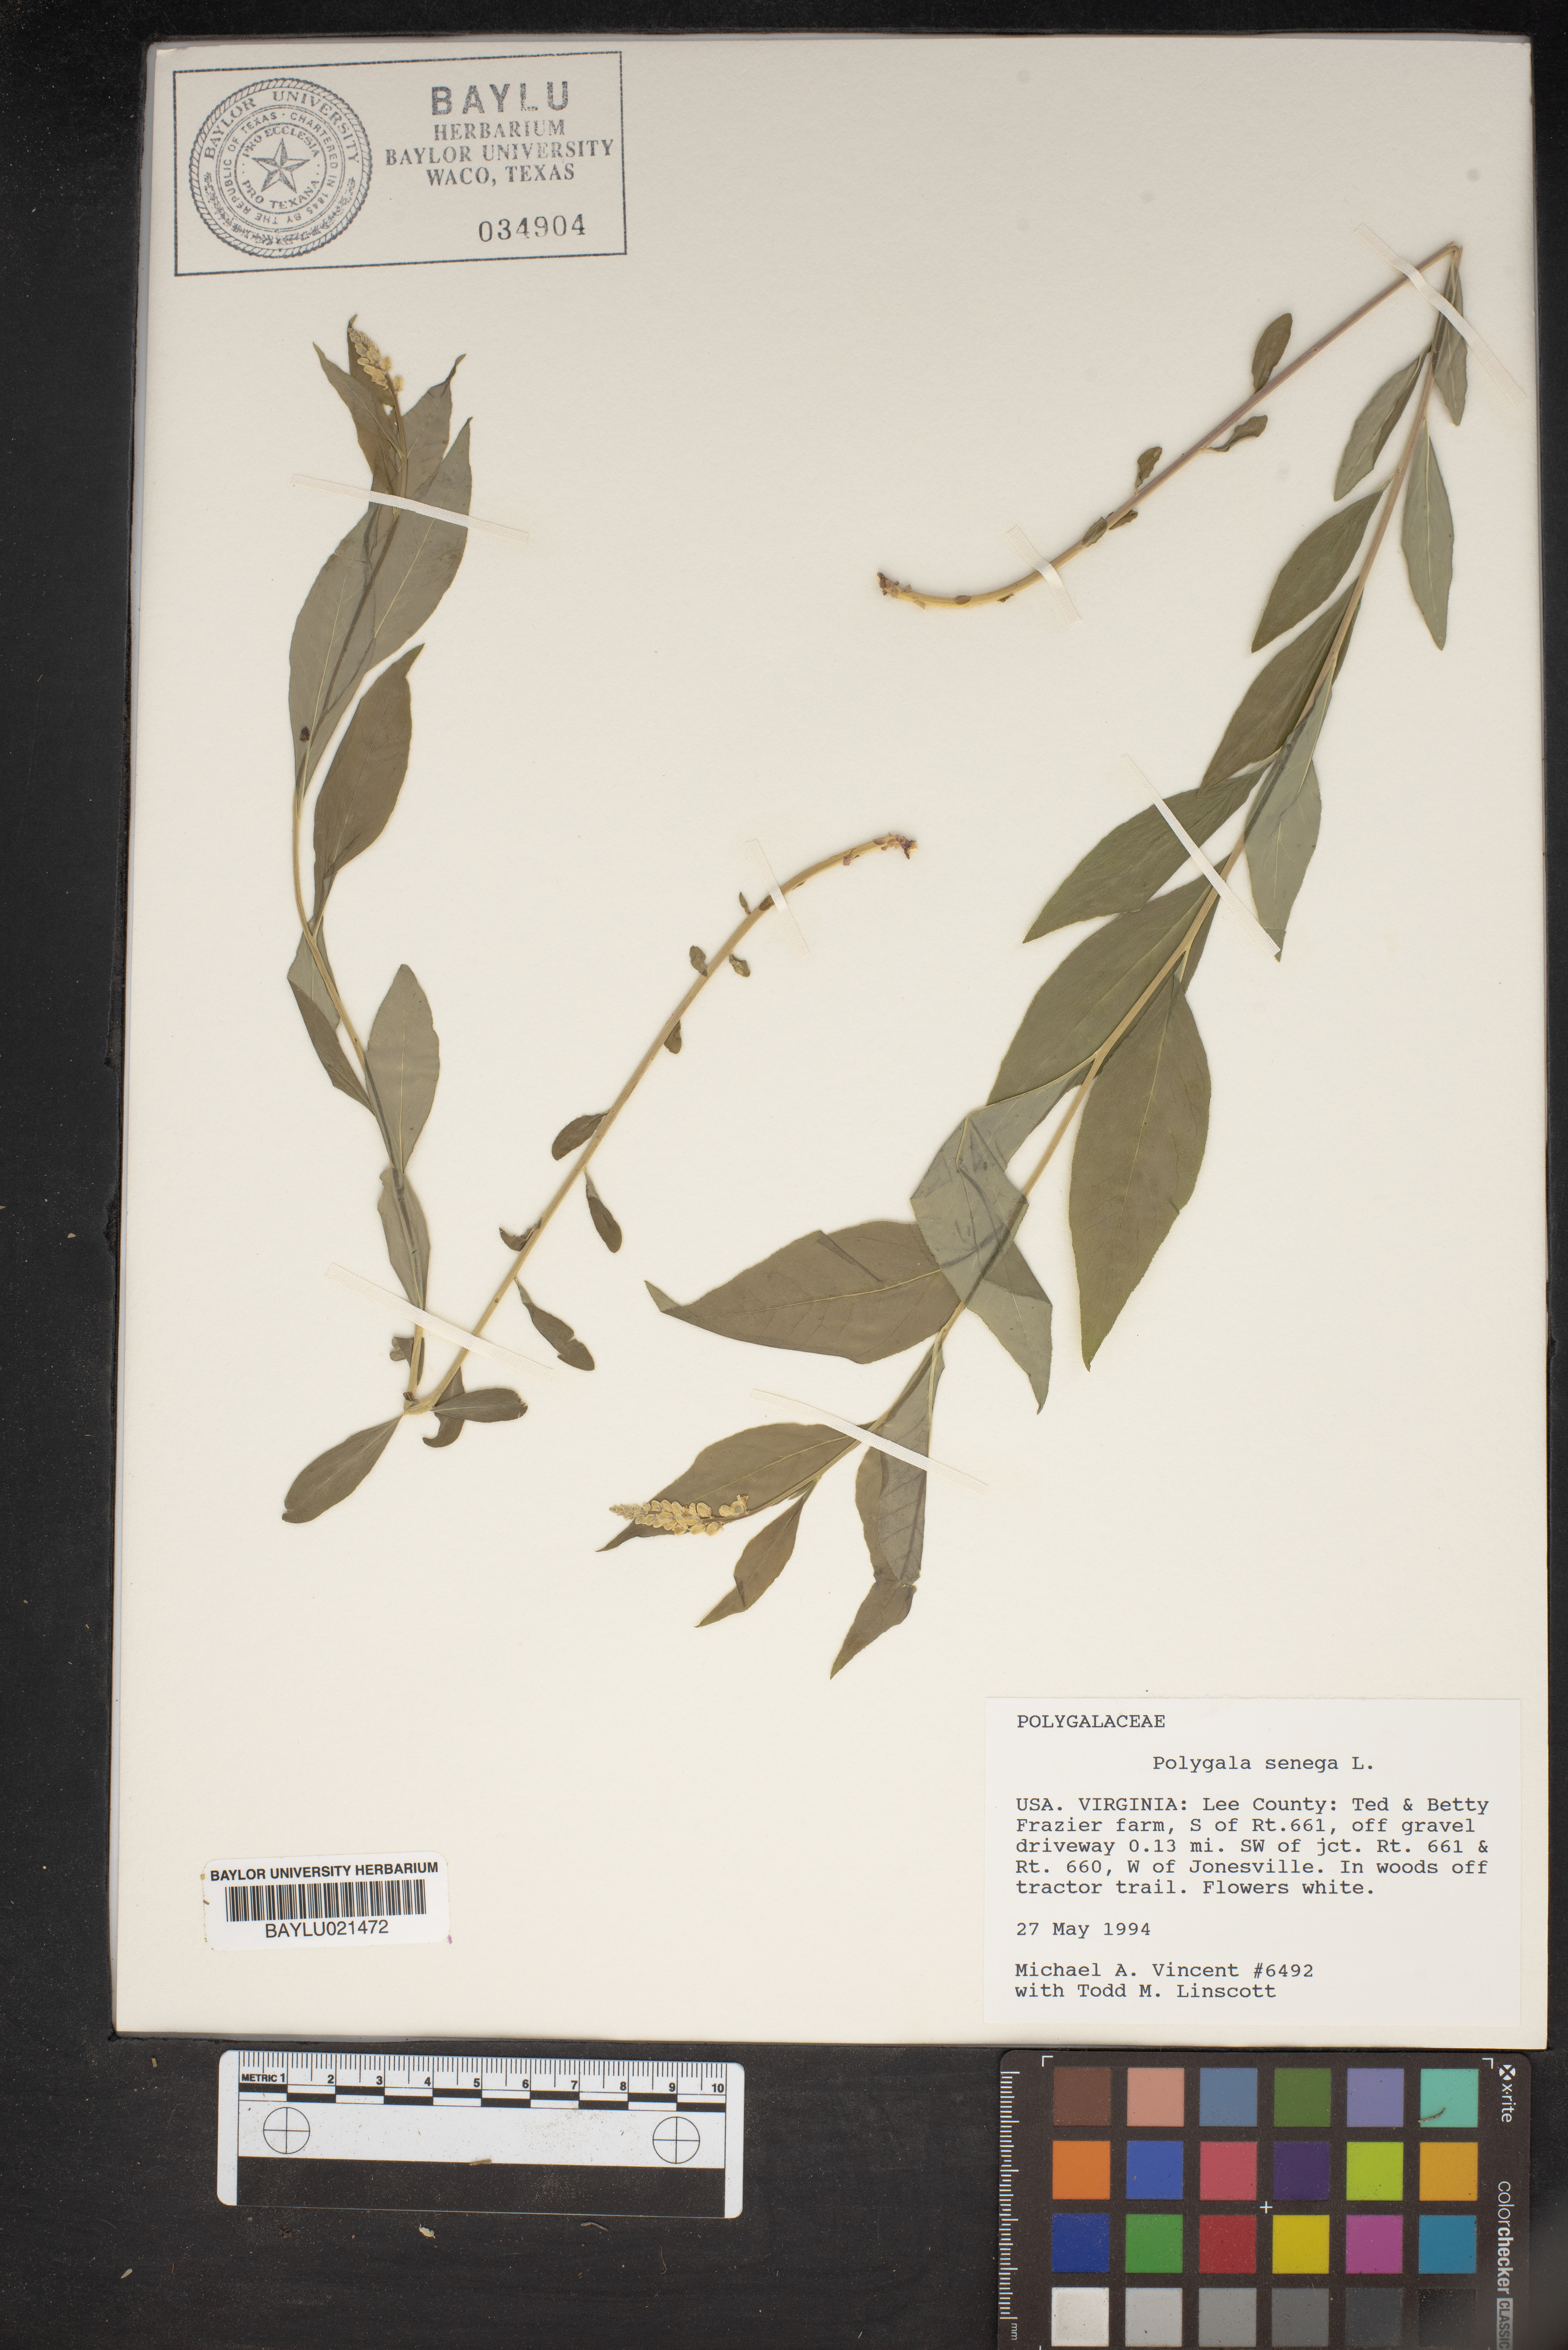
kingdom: Plantae
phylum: Tracheophyta
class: Magnoliopsida
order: Fabales
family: Polygalaceae
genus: Polygala
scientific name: Polygala senega
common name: Seneca snakeroot
